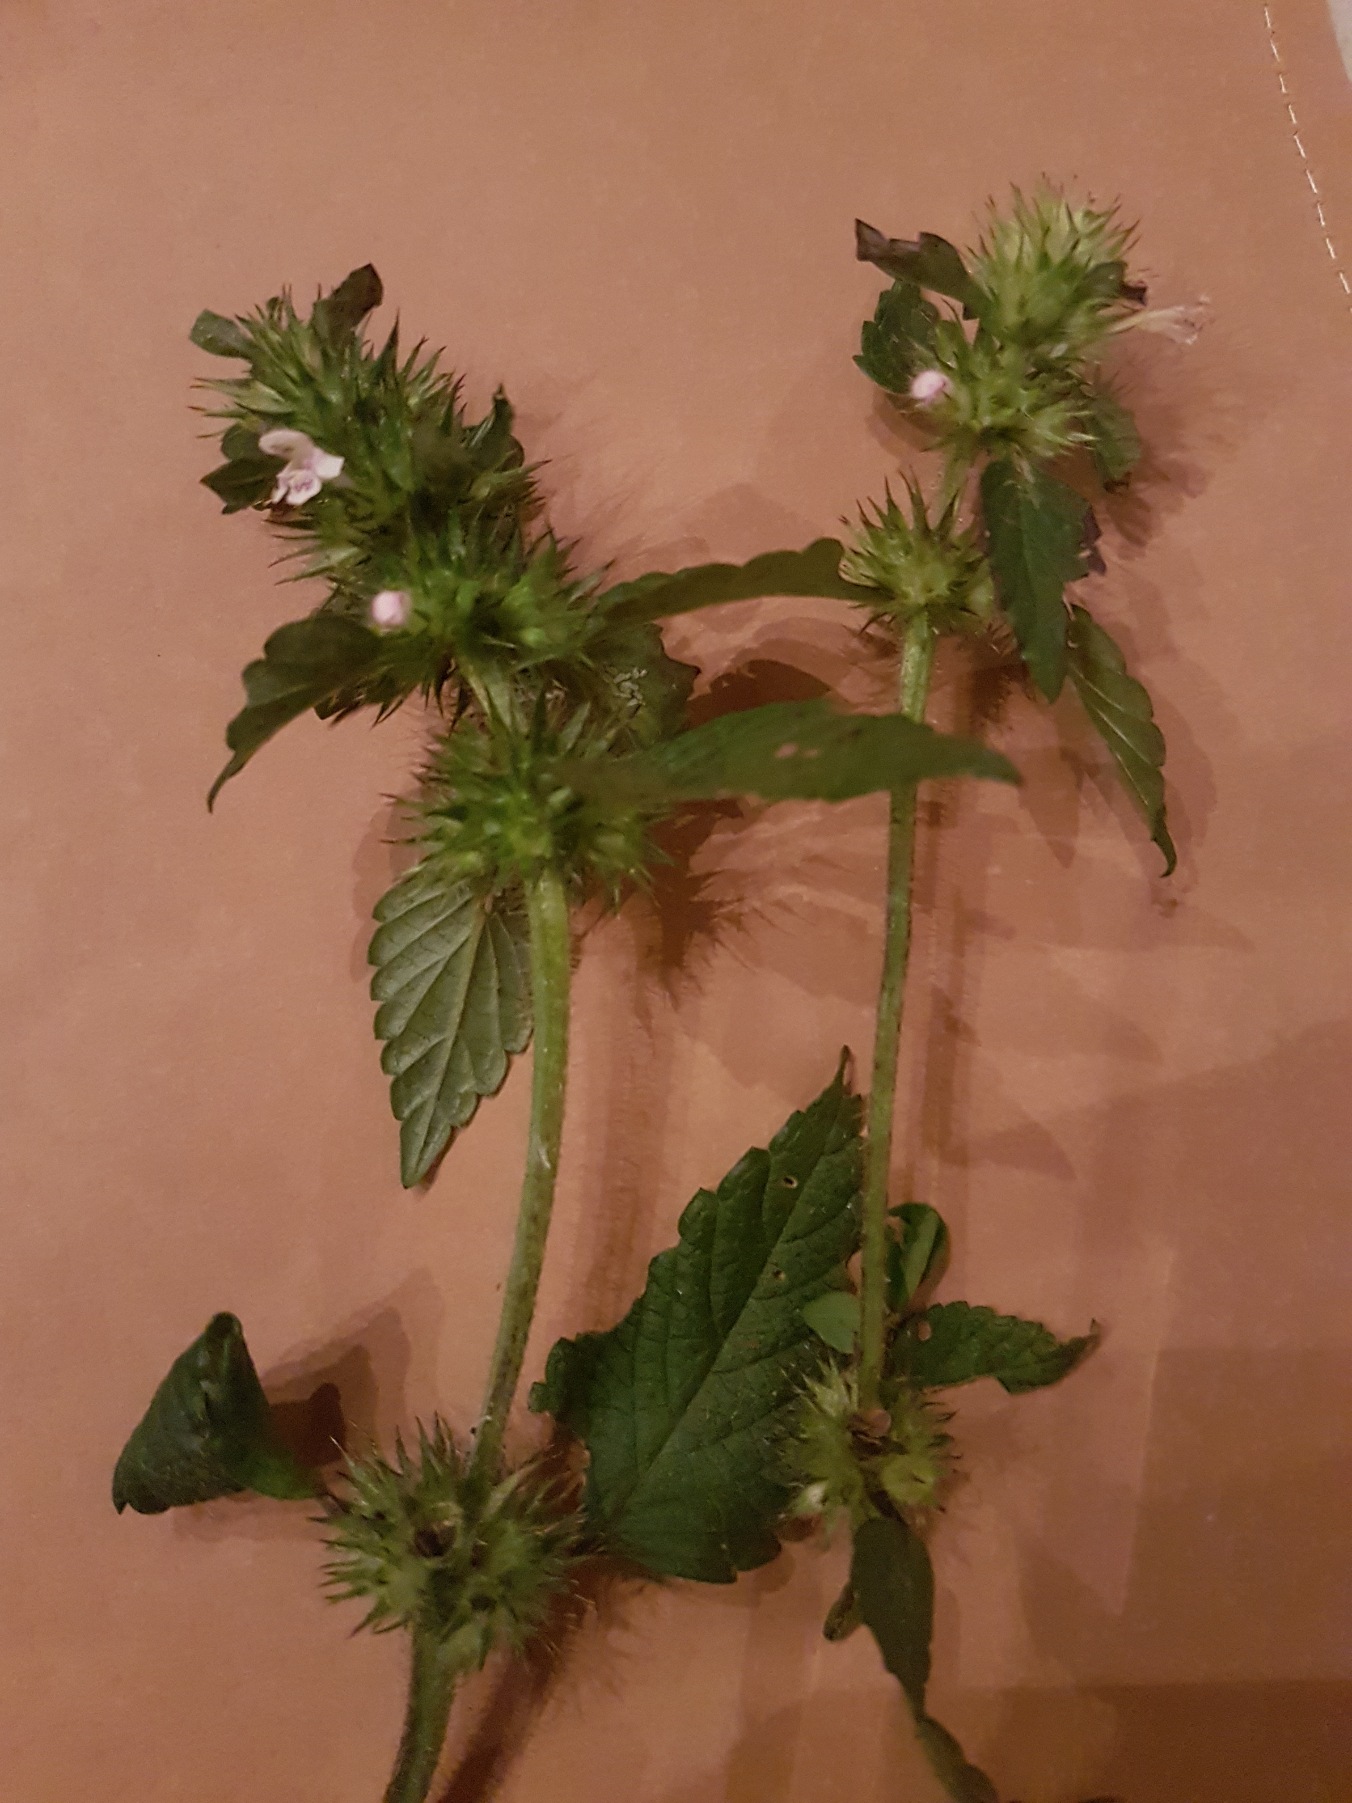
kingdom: Plantae
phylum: Tracheophyta
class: Magnoliopsida
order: Lamiales
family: Lamiaceae
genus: Galeopsis
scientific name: Galeopsis tetrahit
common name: Almindelig hanekro
